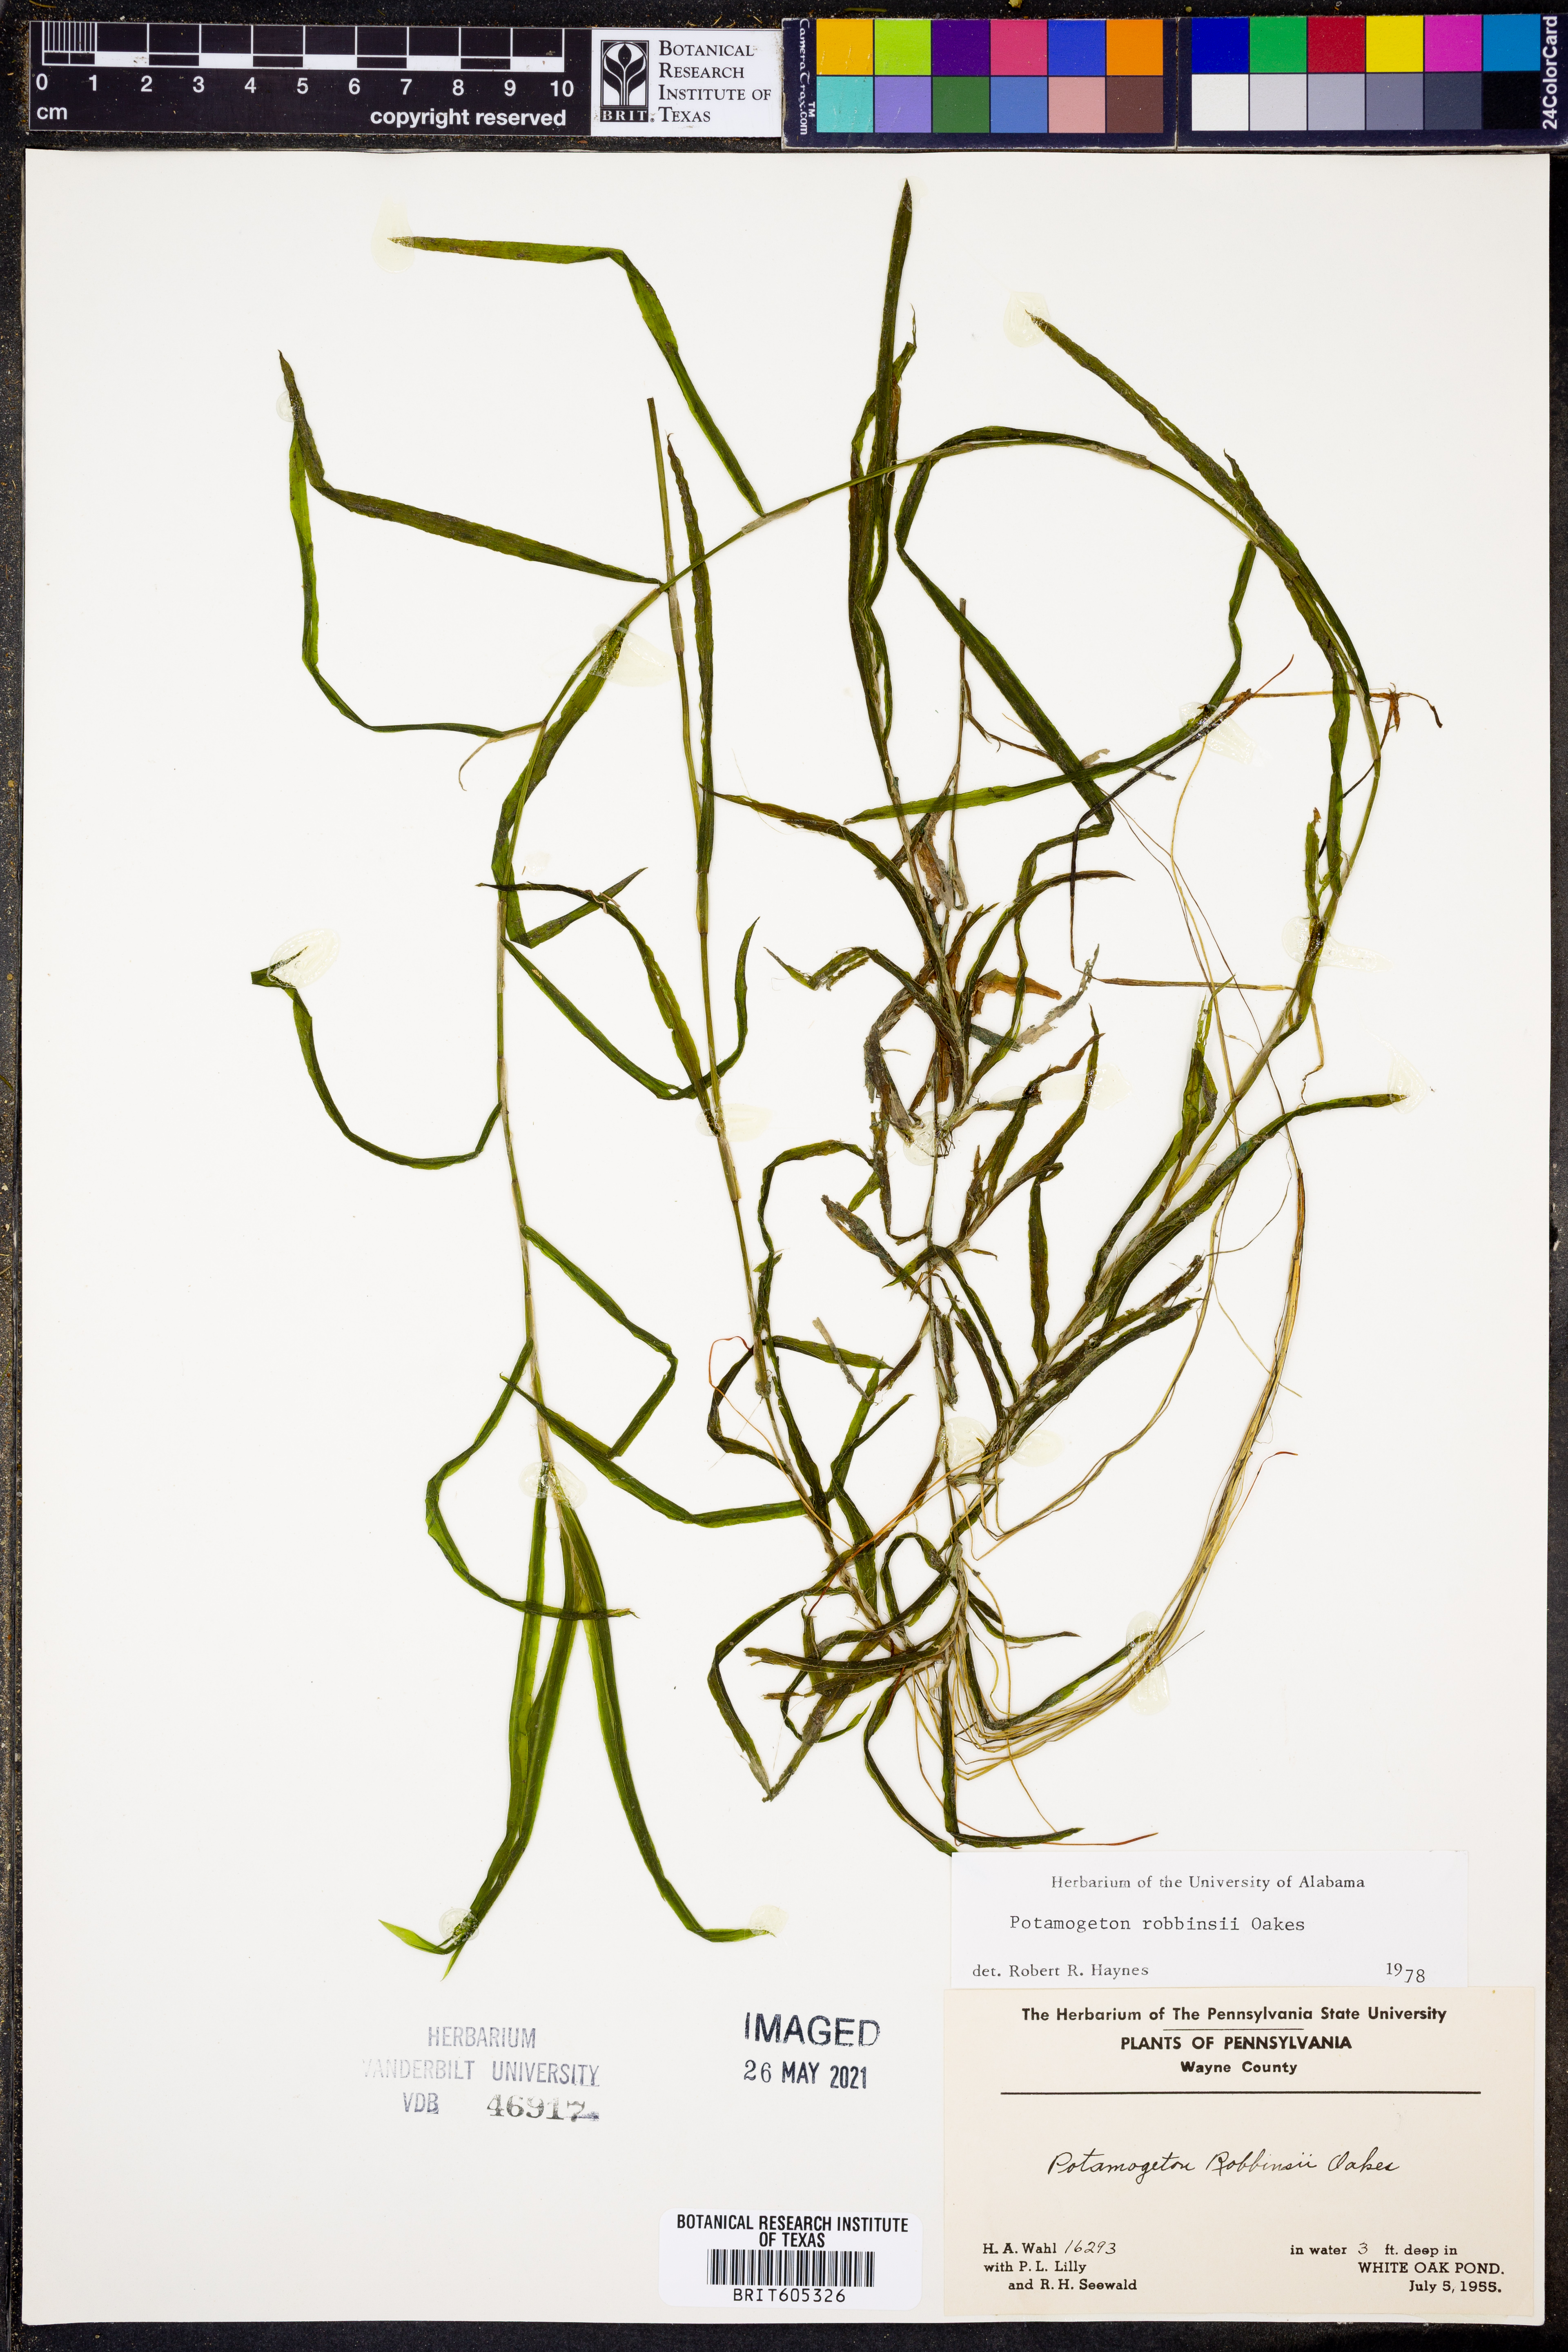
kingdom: Plantae
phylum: Tracheophyta
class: Liliopsida
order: Alismatales
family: Potamogetonaceae
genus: Potamogeton
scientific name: Potamogeton robbinsii
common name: Fern pondweed
